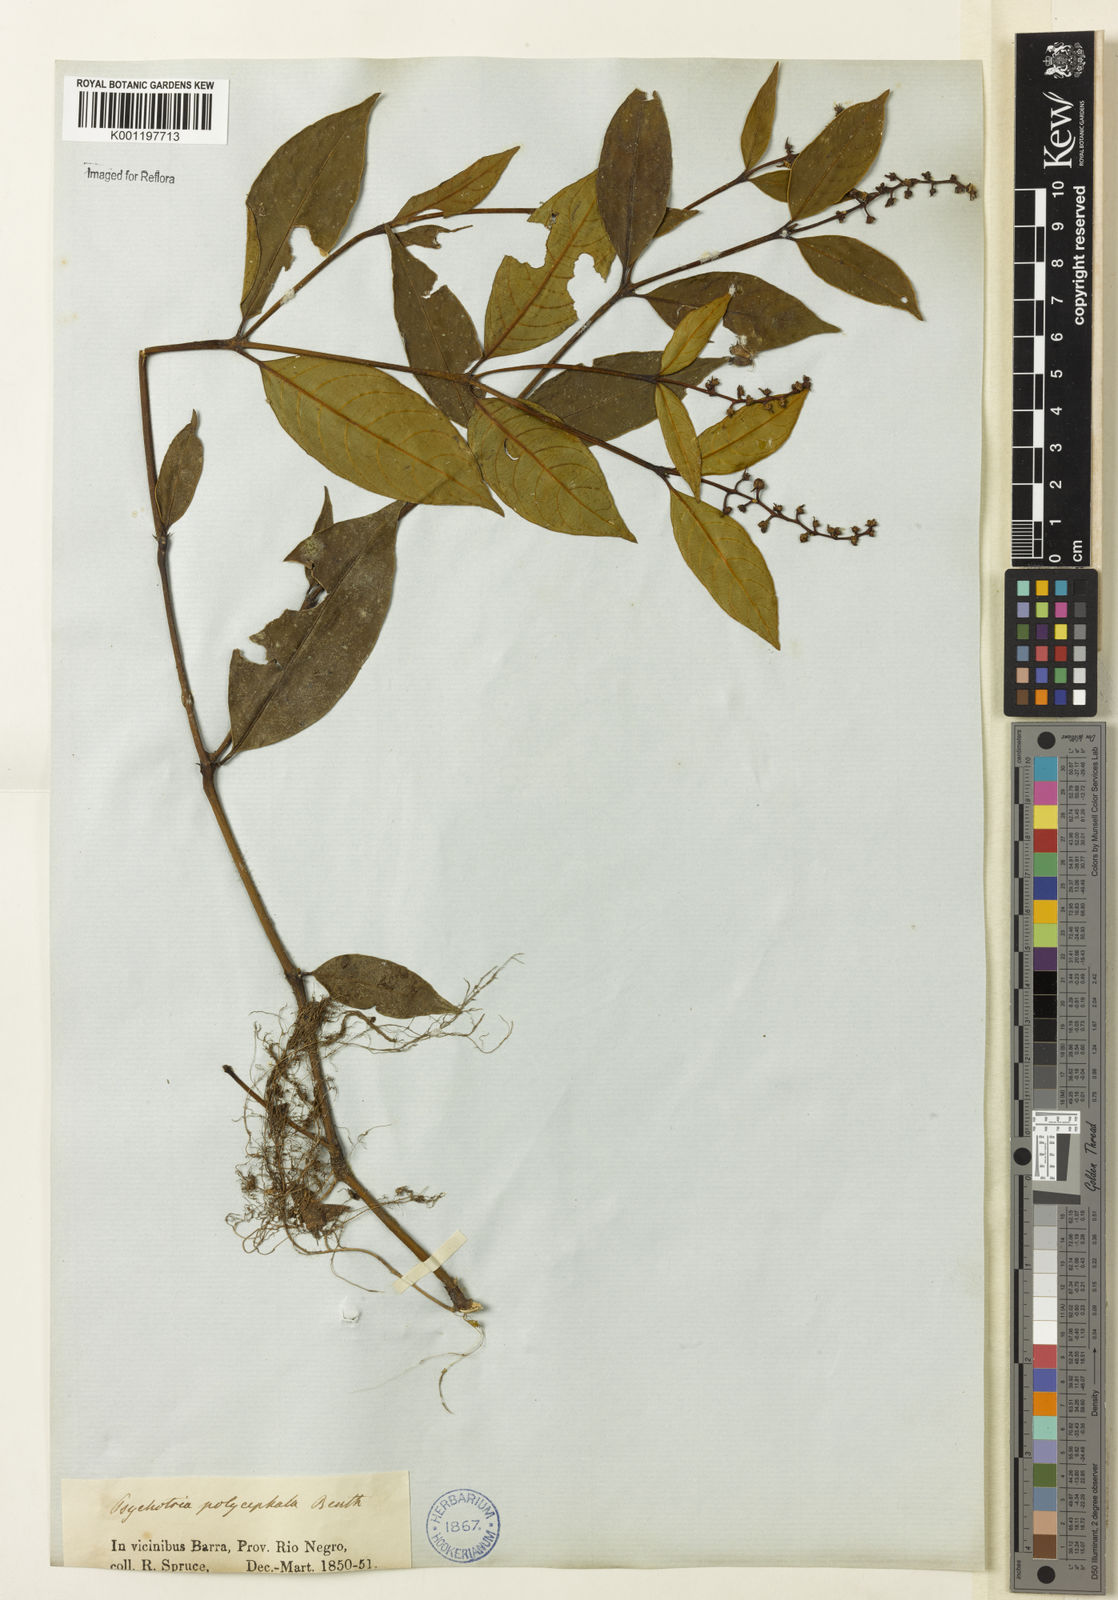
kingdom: Plantae
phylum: Tracheophyta
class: Magnoliopsida
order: Gentianales
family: Rubiaceae
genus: Palicourea
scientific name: Palicourea polycephala
